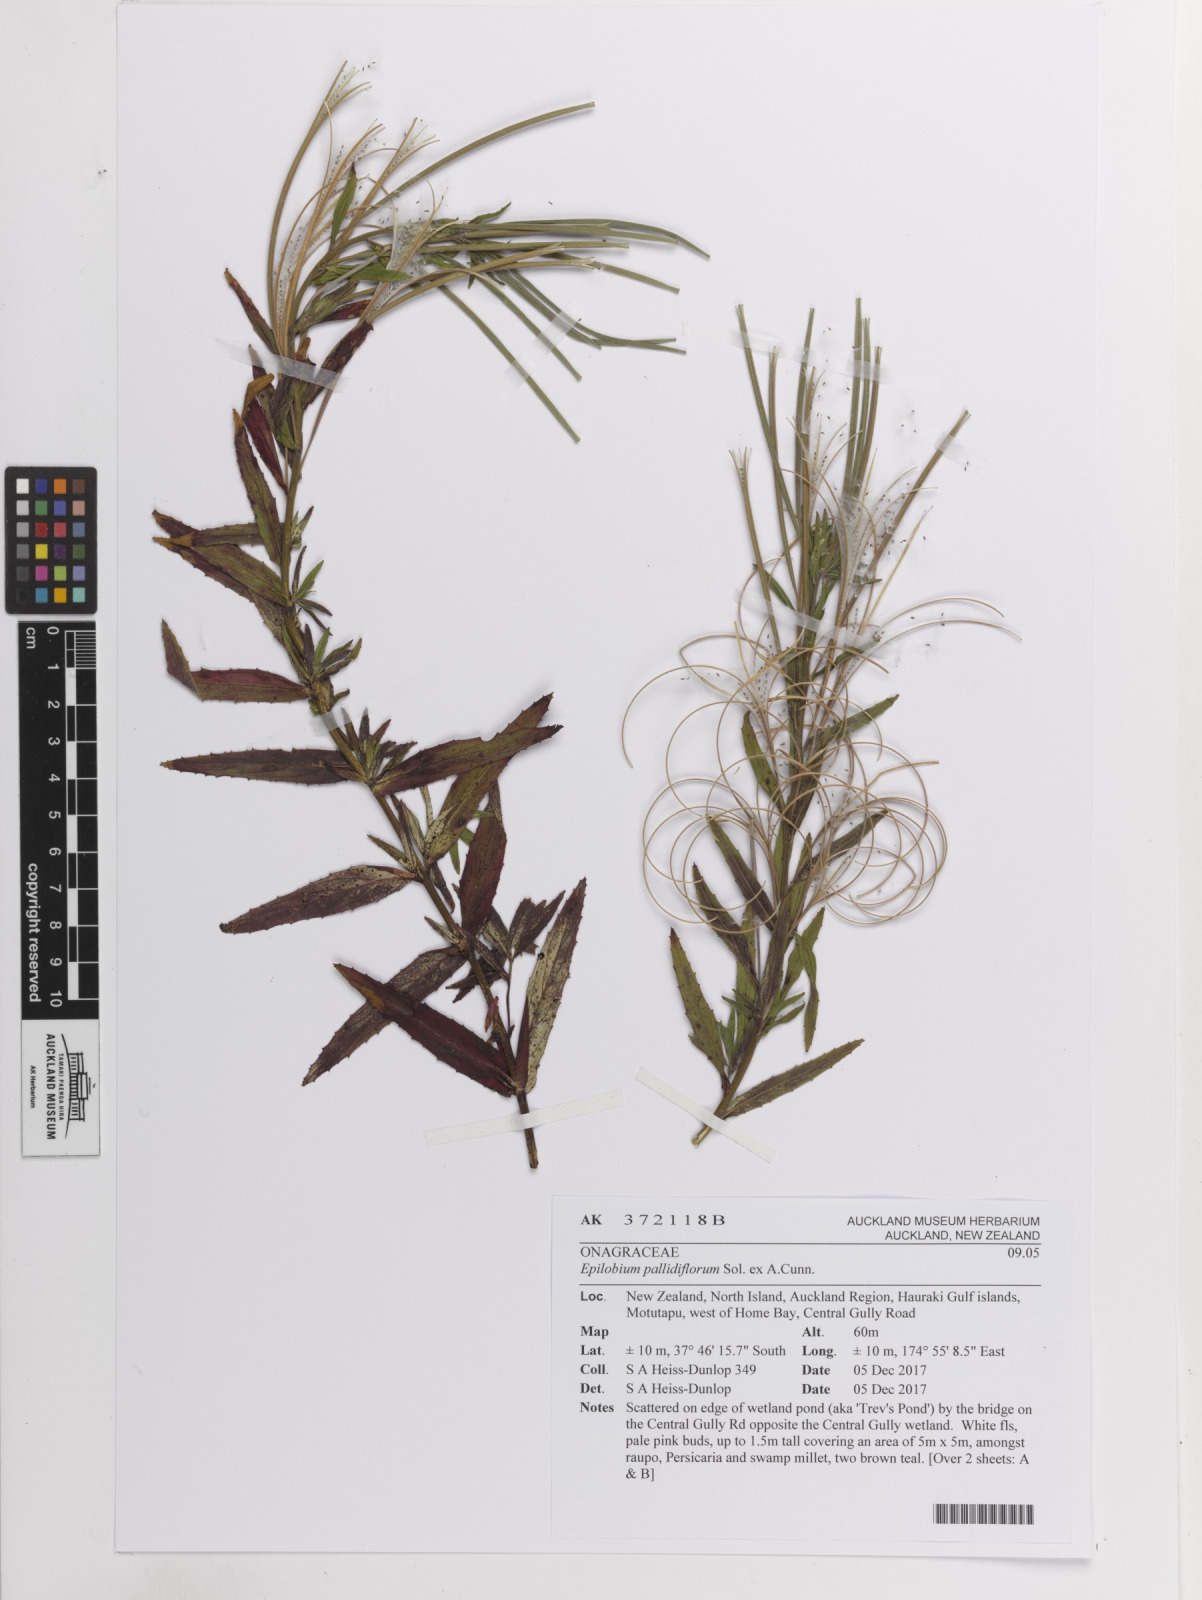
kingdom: Plantae
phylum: Tracheophyta
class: Magnoliopsida
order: Myrtales
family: Onagraceae
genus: Epilobium
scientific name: Epilobium pallidiflorum
